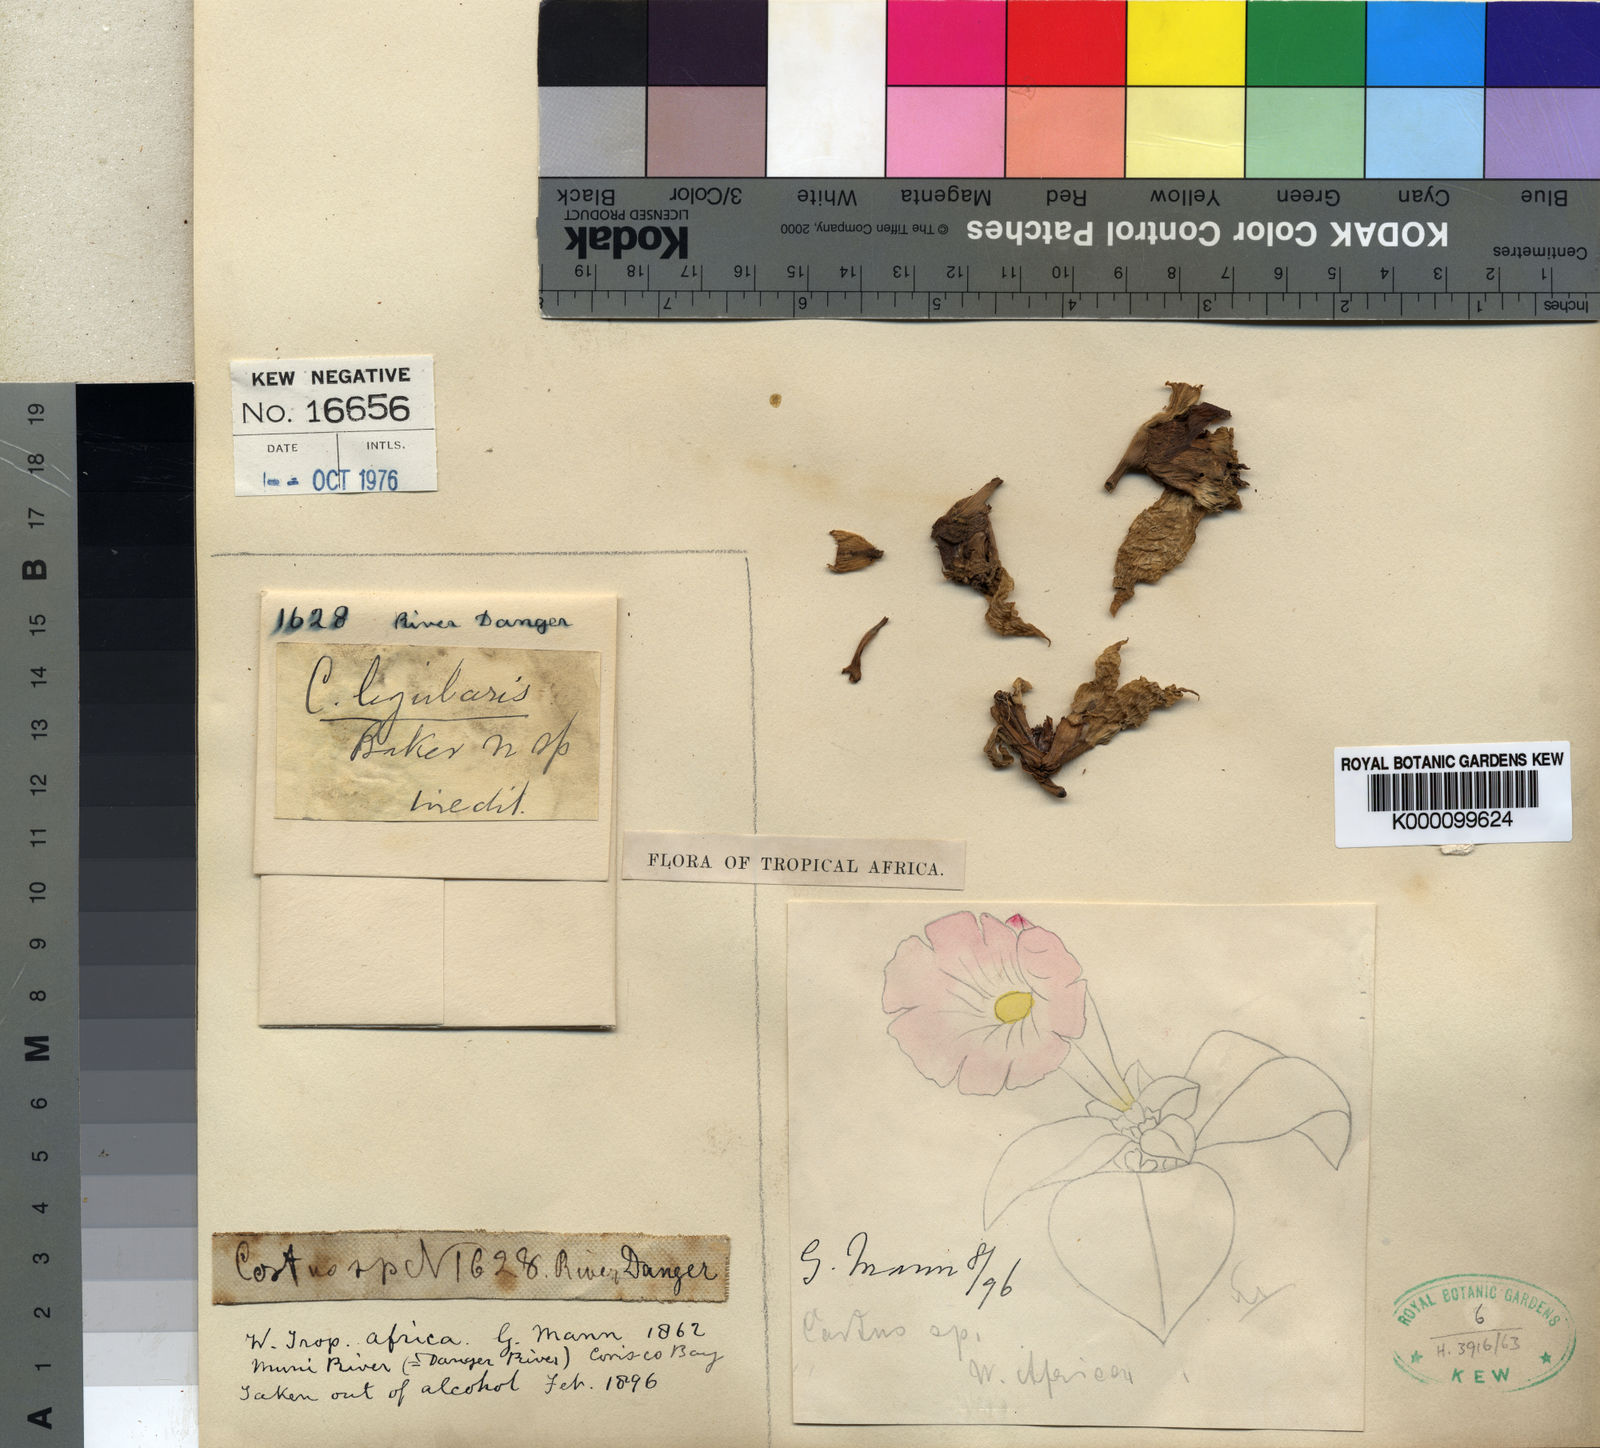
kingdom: Plantae
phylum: Tracheophyta
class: Liliopsida
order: Zingiberales
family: Costaceae
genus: Costus
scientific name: Costus ligularis
